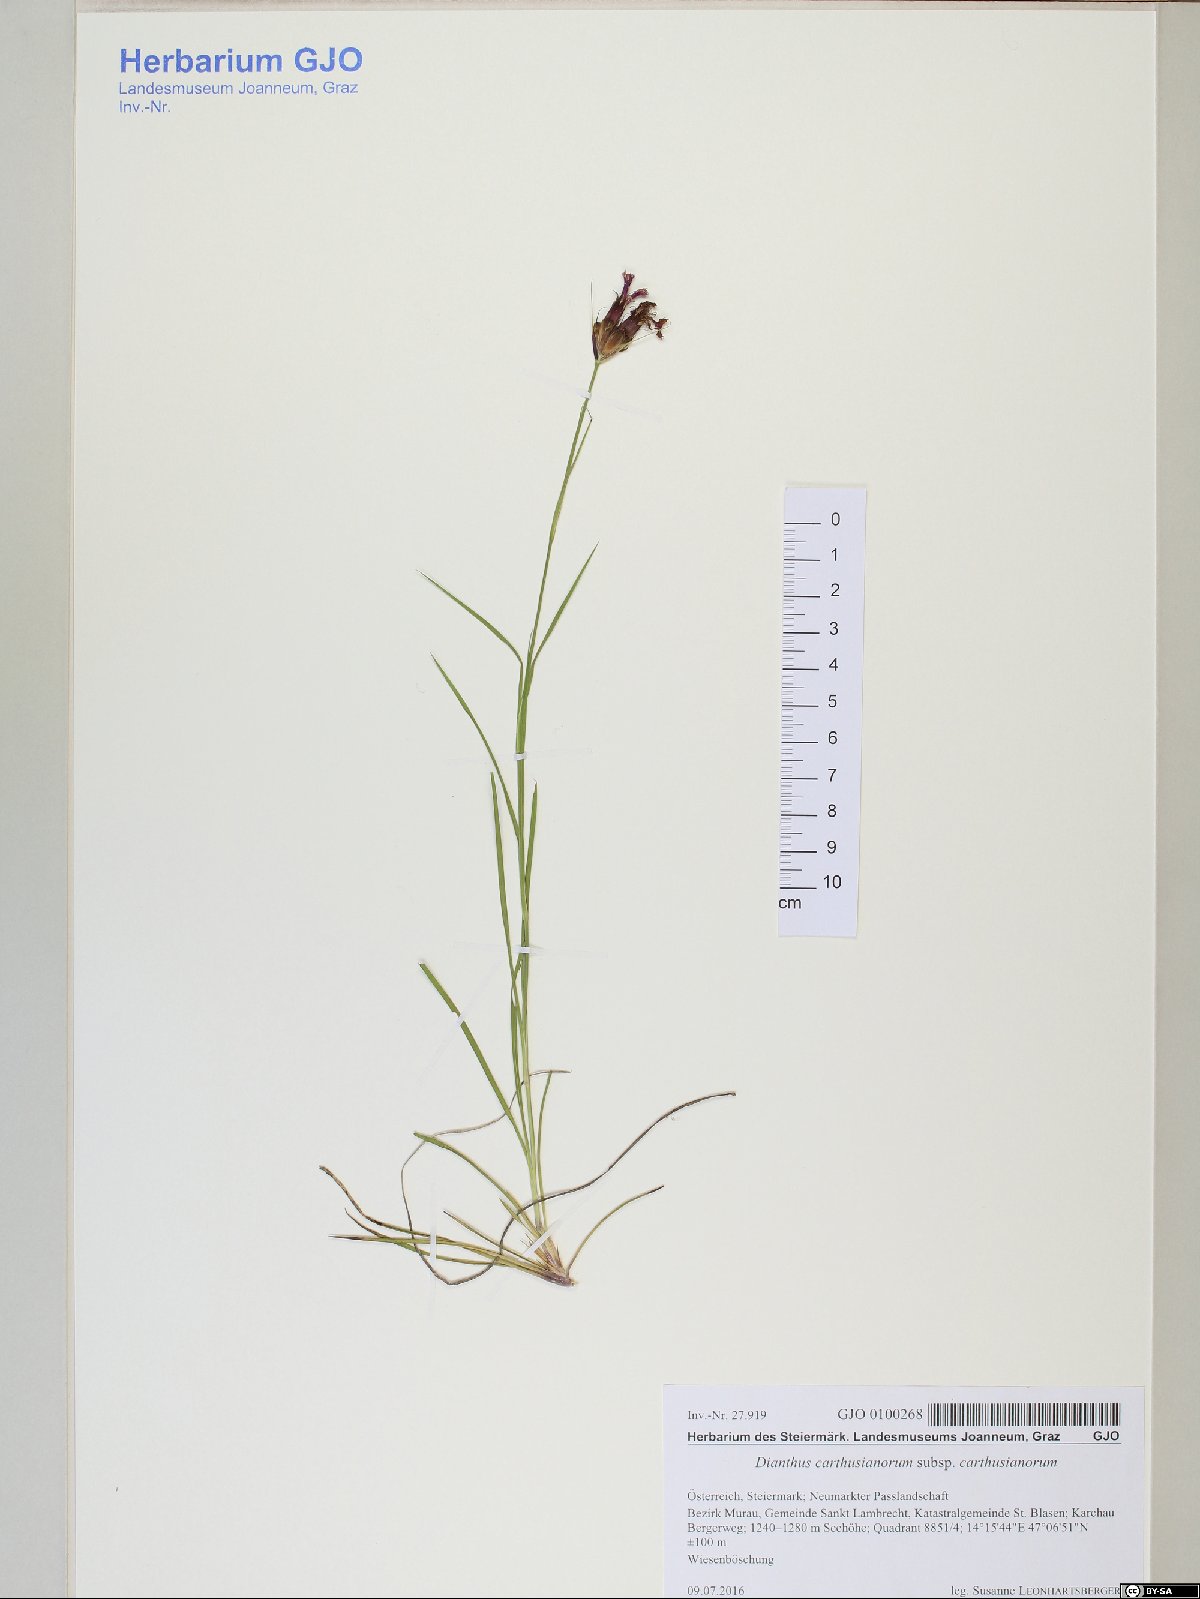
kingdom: Plantae
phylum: Tracheophyta
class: Magnoliopsida
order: Caryophyllales
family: Caryophyllaceae
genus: Dianthus
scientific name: Dianthus carthusianorum
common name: Carthusian pink
